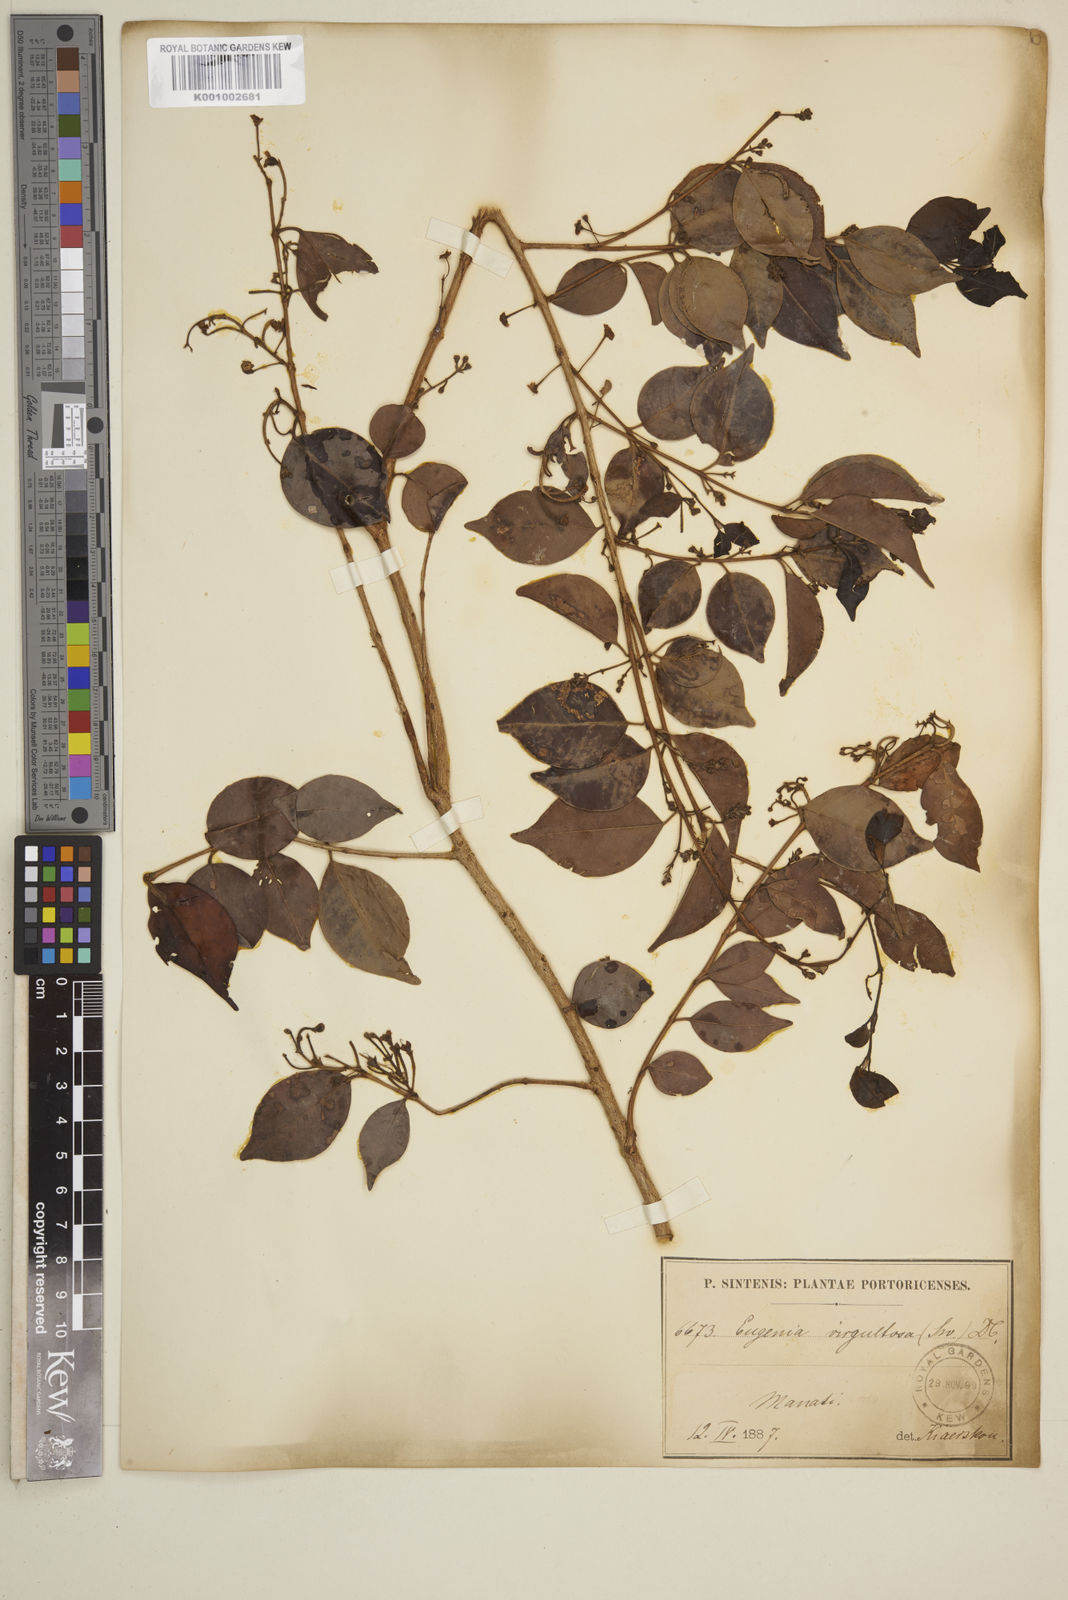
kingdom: Plantae
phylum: Tracheophyta
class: Magnoliopsida
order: Myrtales
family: Myrtaceae
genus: Eugenia
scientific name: Eugenia biflora
